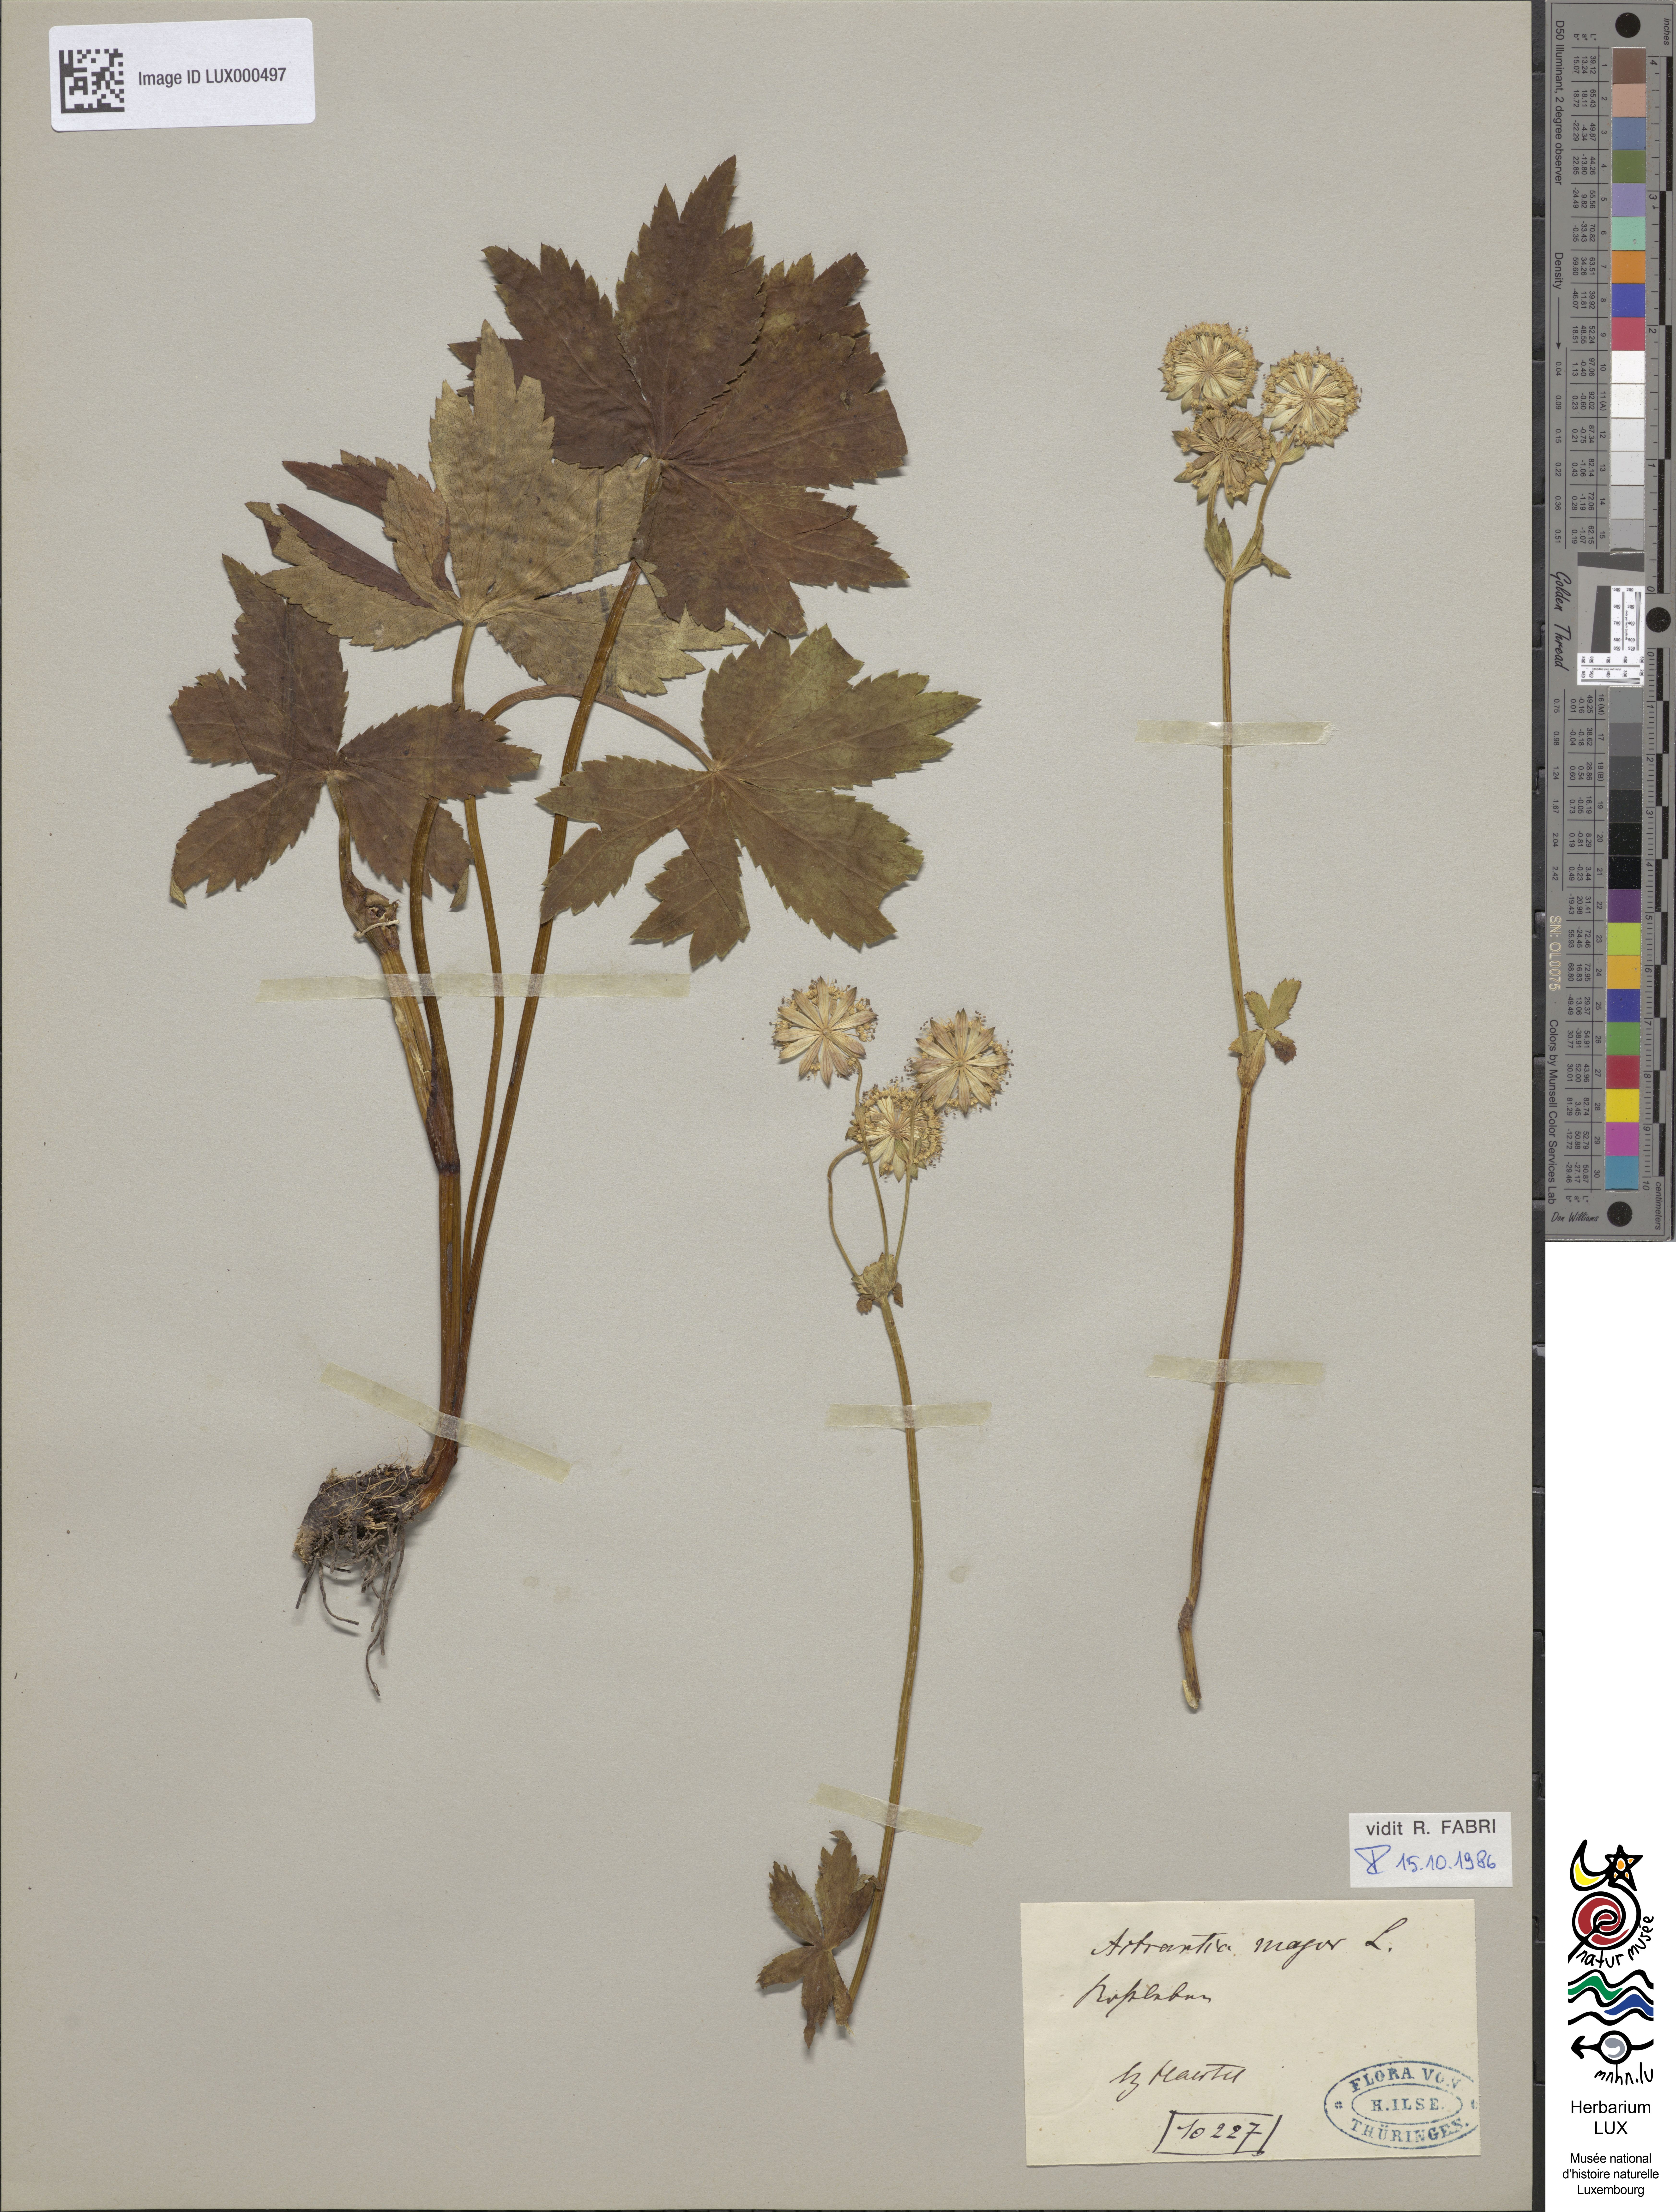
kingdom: Plantae
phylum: Tracheophyta
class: Magnoliopsida
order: Apiales
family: Apiaceae
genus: Astrantia
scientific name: Astrantia major
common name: Greater masterwort
